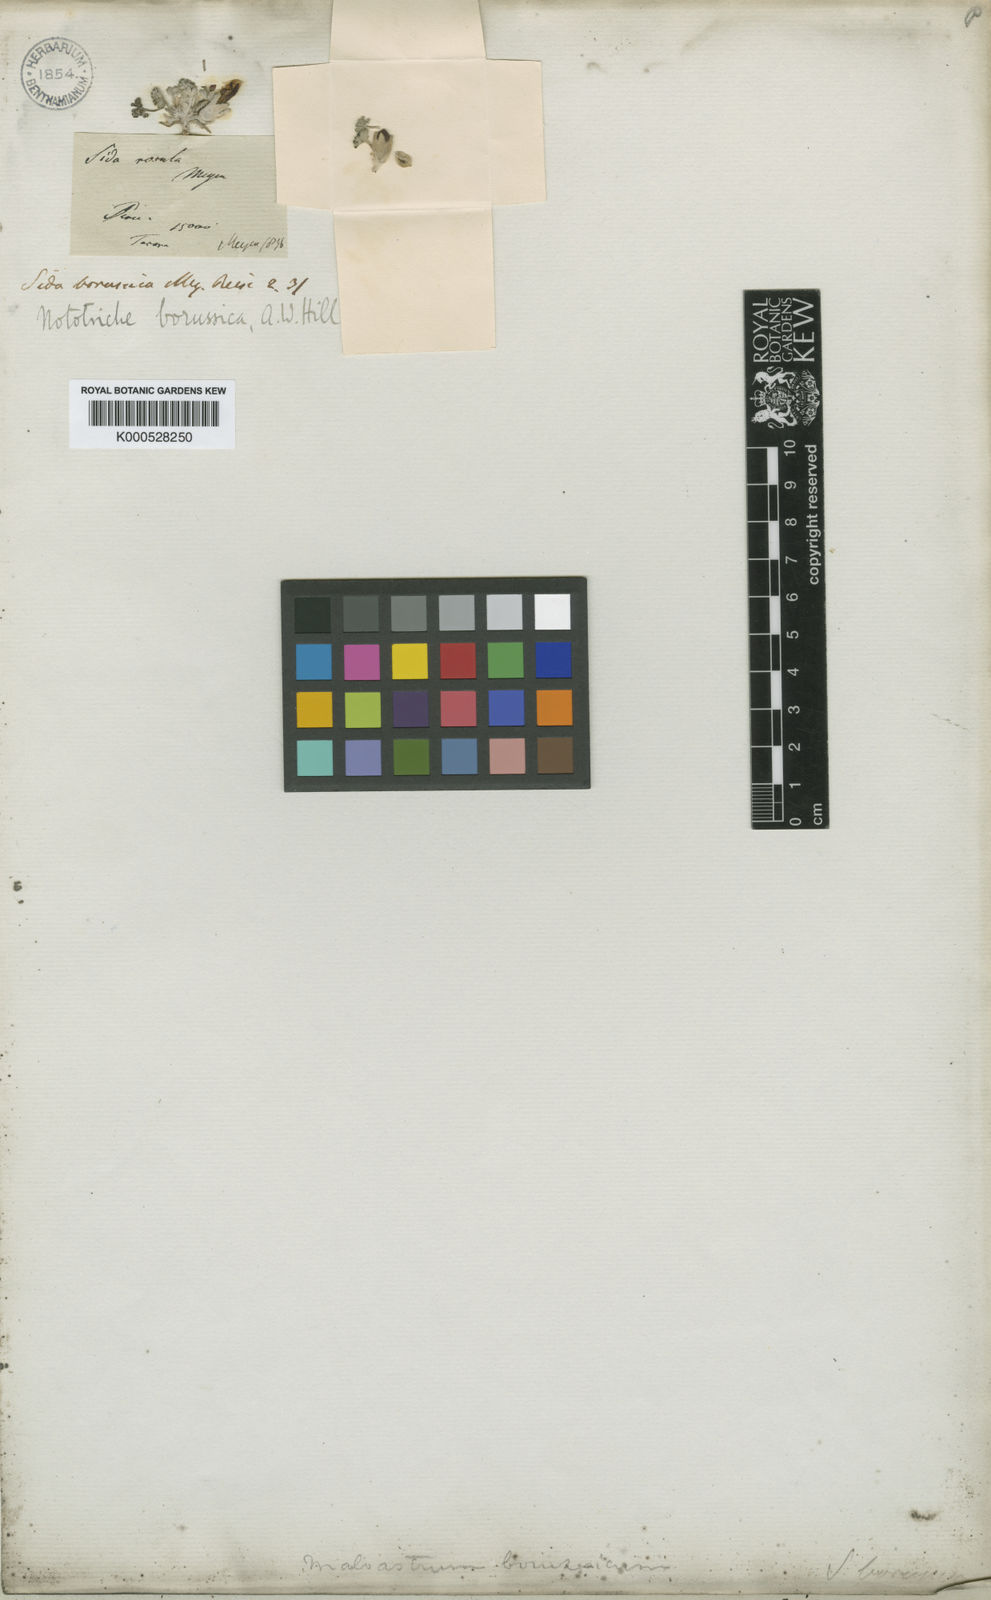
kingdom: Plantae
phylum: Tracheophyta
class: Magnoliopsida
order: Malvales
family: Malvaceae
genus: Nototriche
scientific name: Nototriche meyenii
